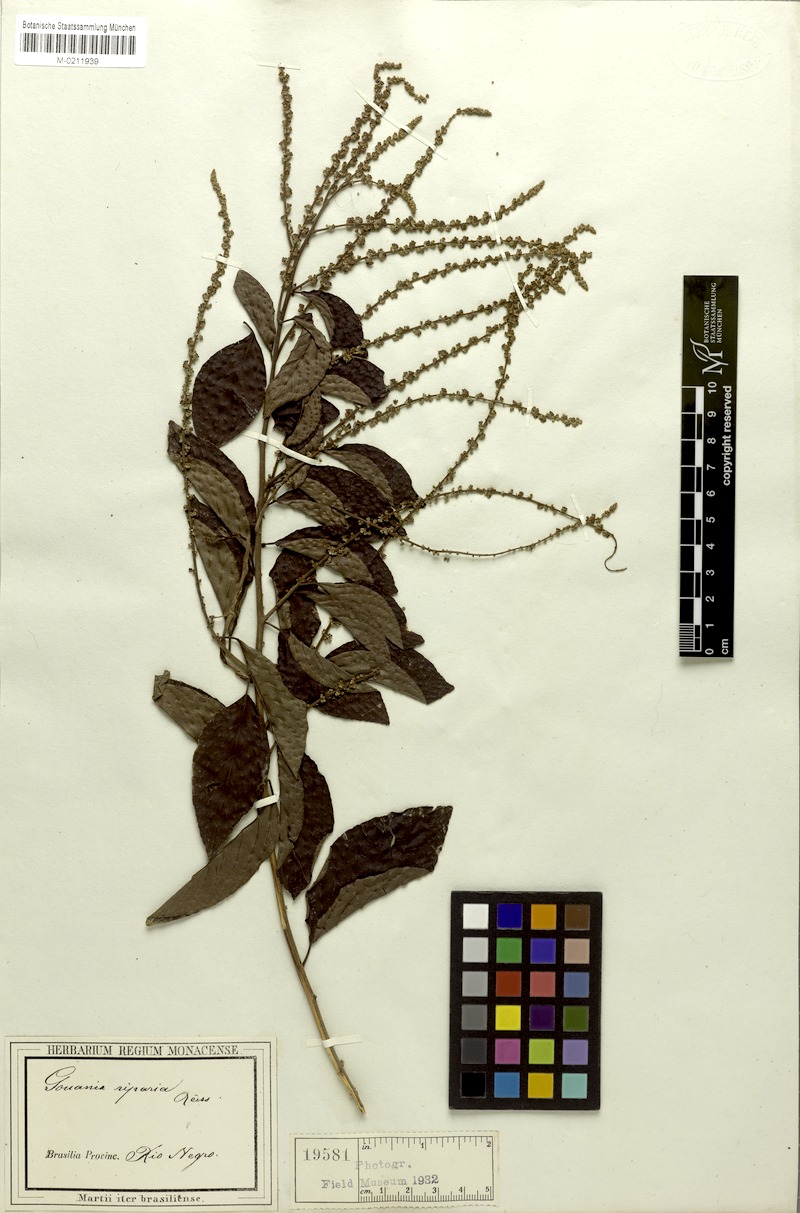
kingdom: Plantae
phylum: Tracheophyta
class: Magnoliopsida
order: Rosales
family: Rhamnaceae
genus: Gouania
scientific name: Gouania riparia
